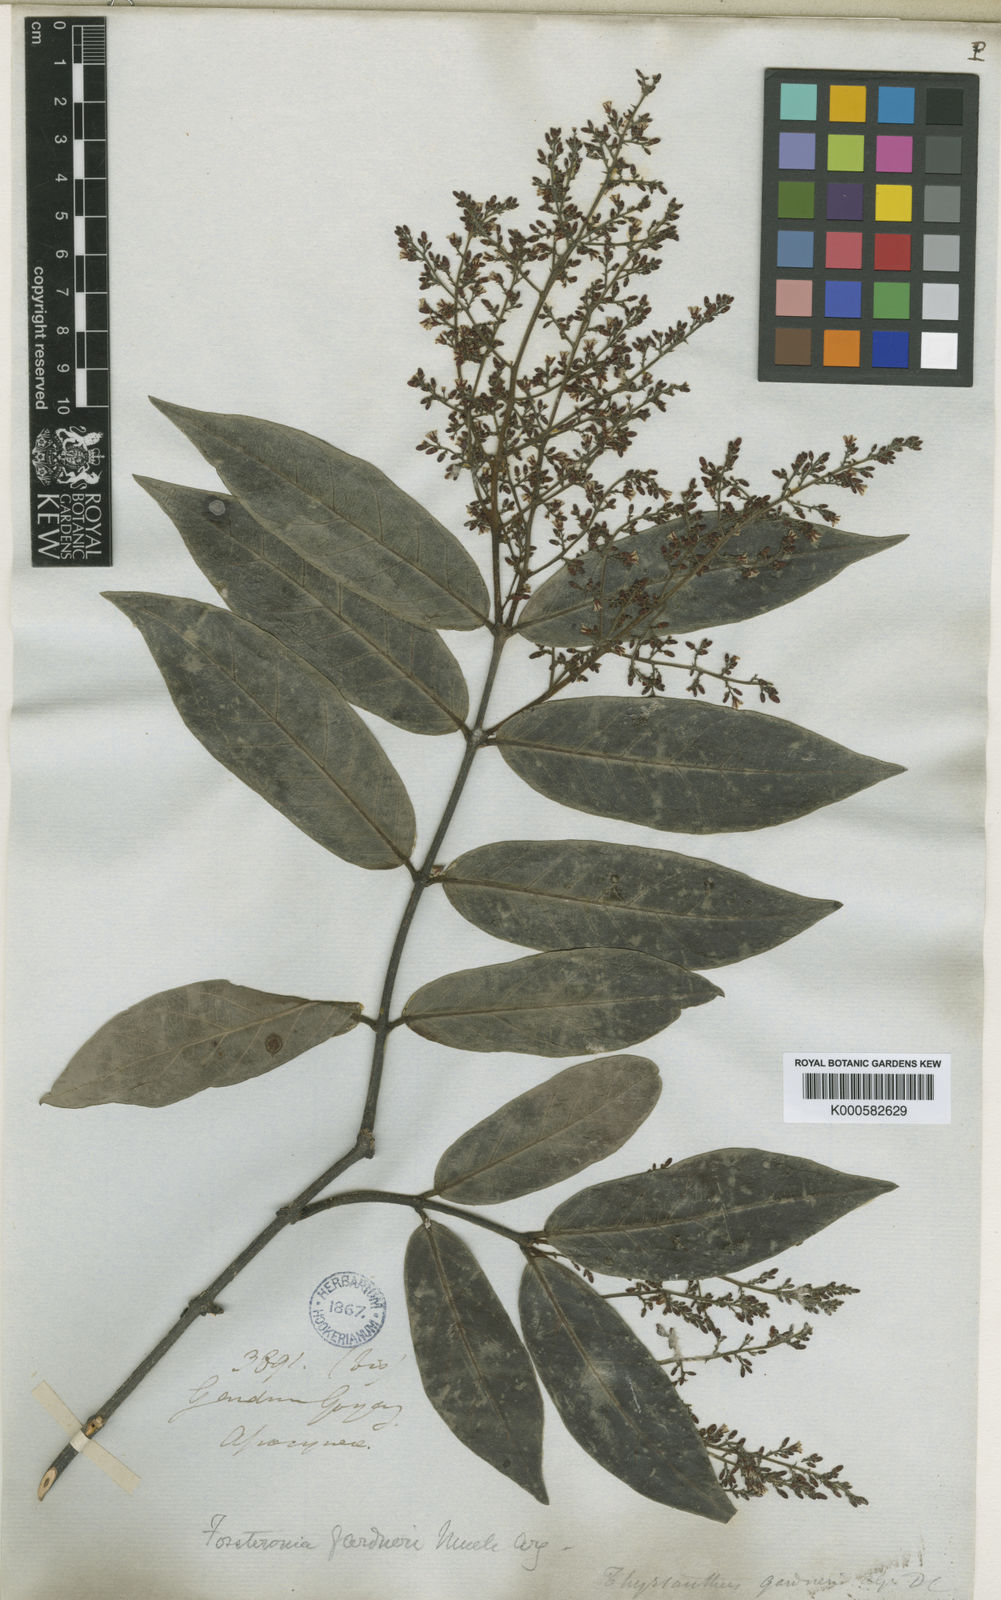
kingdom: Plantae
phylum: Tracheophyta
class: Magnoliopsida
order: Gentianales
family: Apocynaceae
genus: Forsteronia
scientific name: Forsteronia
